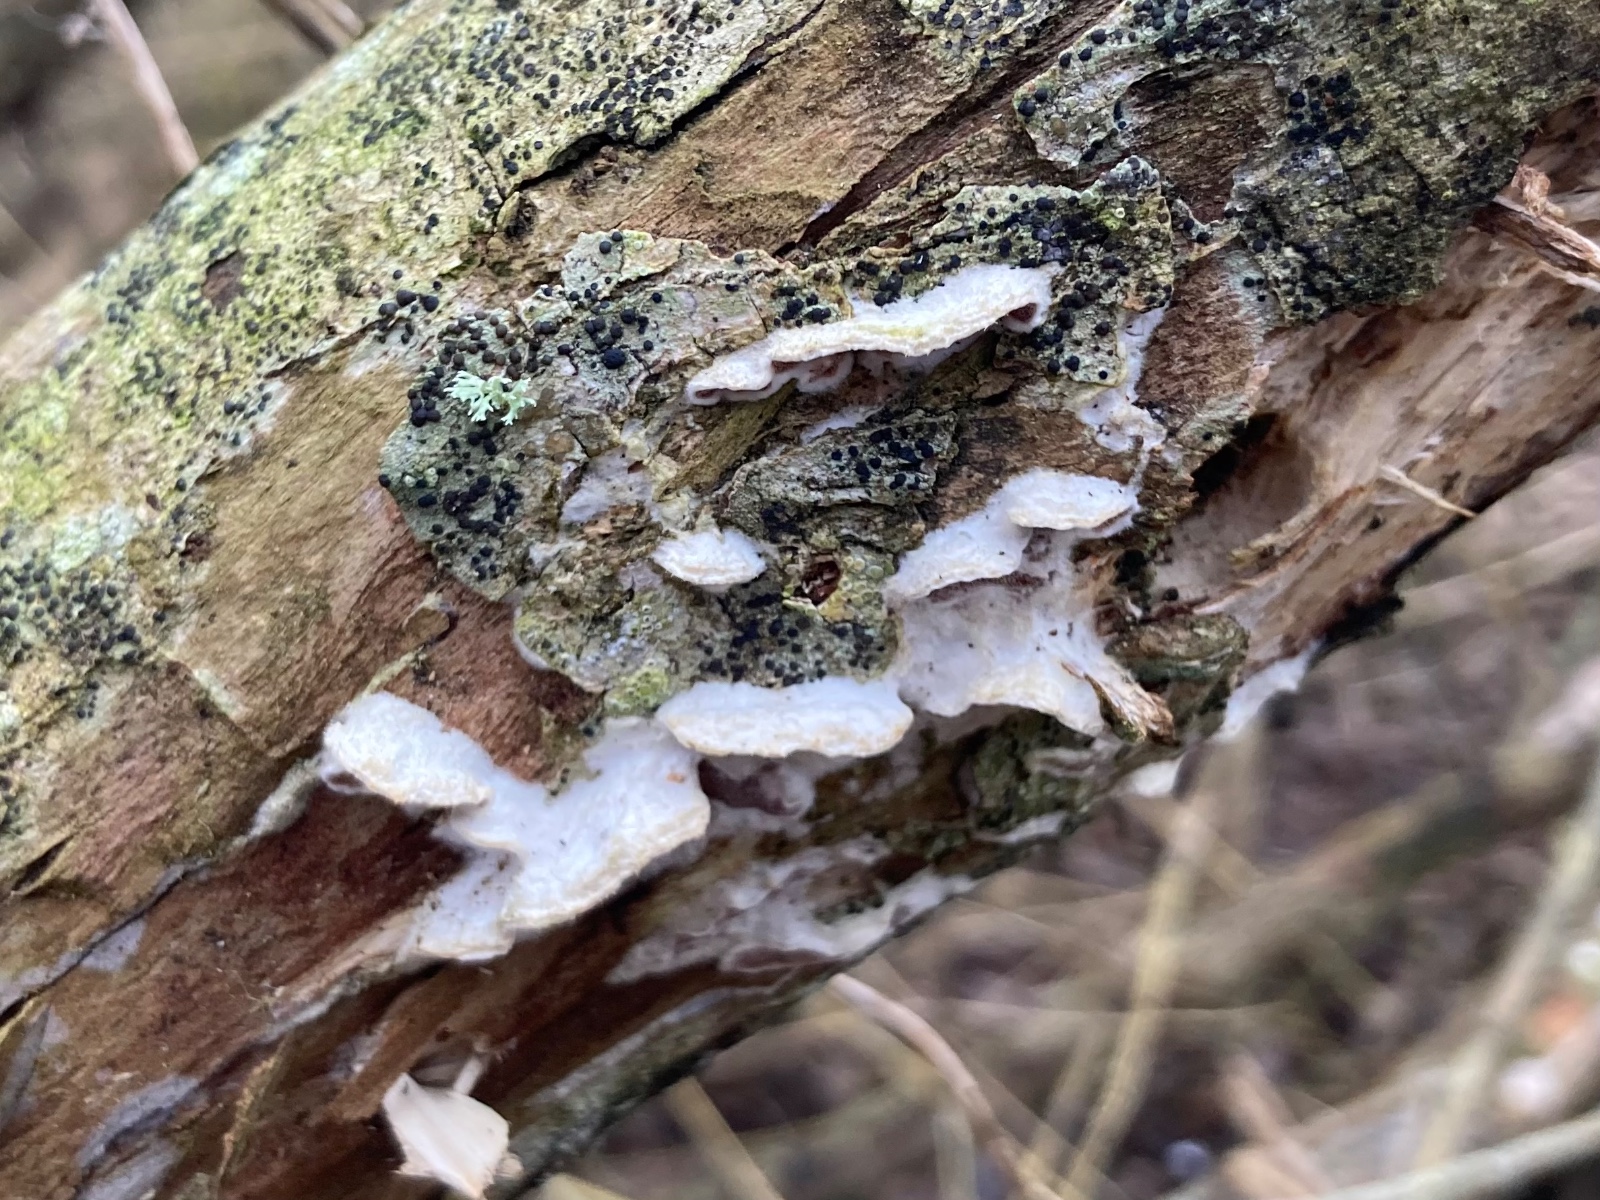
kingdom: Fungi
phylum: Basidiomycota
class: Agaricomycetes
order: Polyporales
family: Irpicaceae
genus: Vitreoporus
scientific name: Vitreoporus dichrous
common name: tofarvet foldporesvamp
